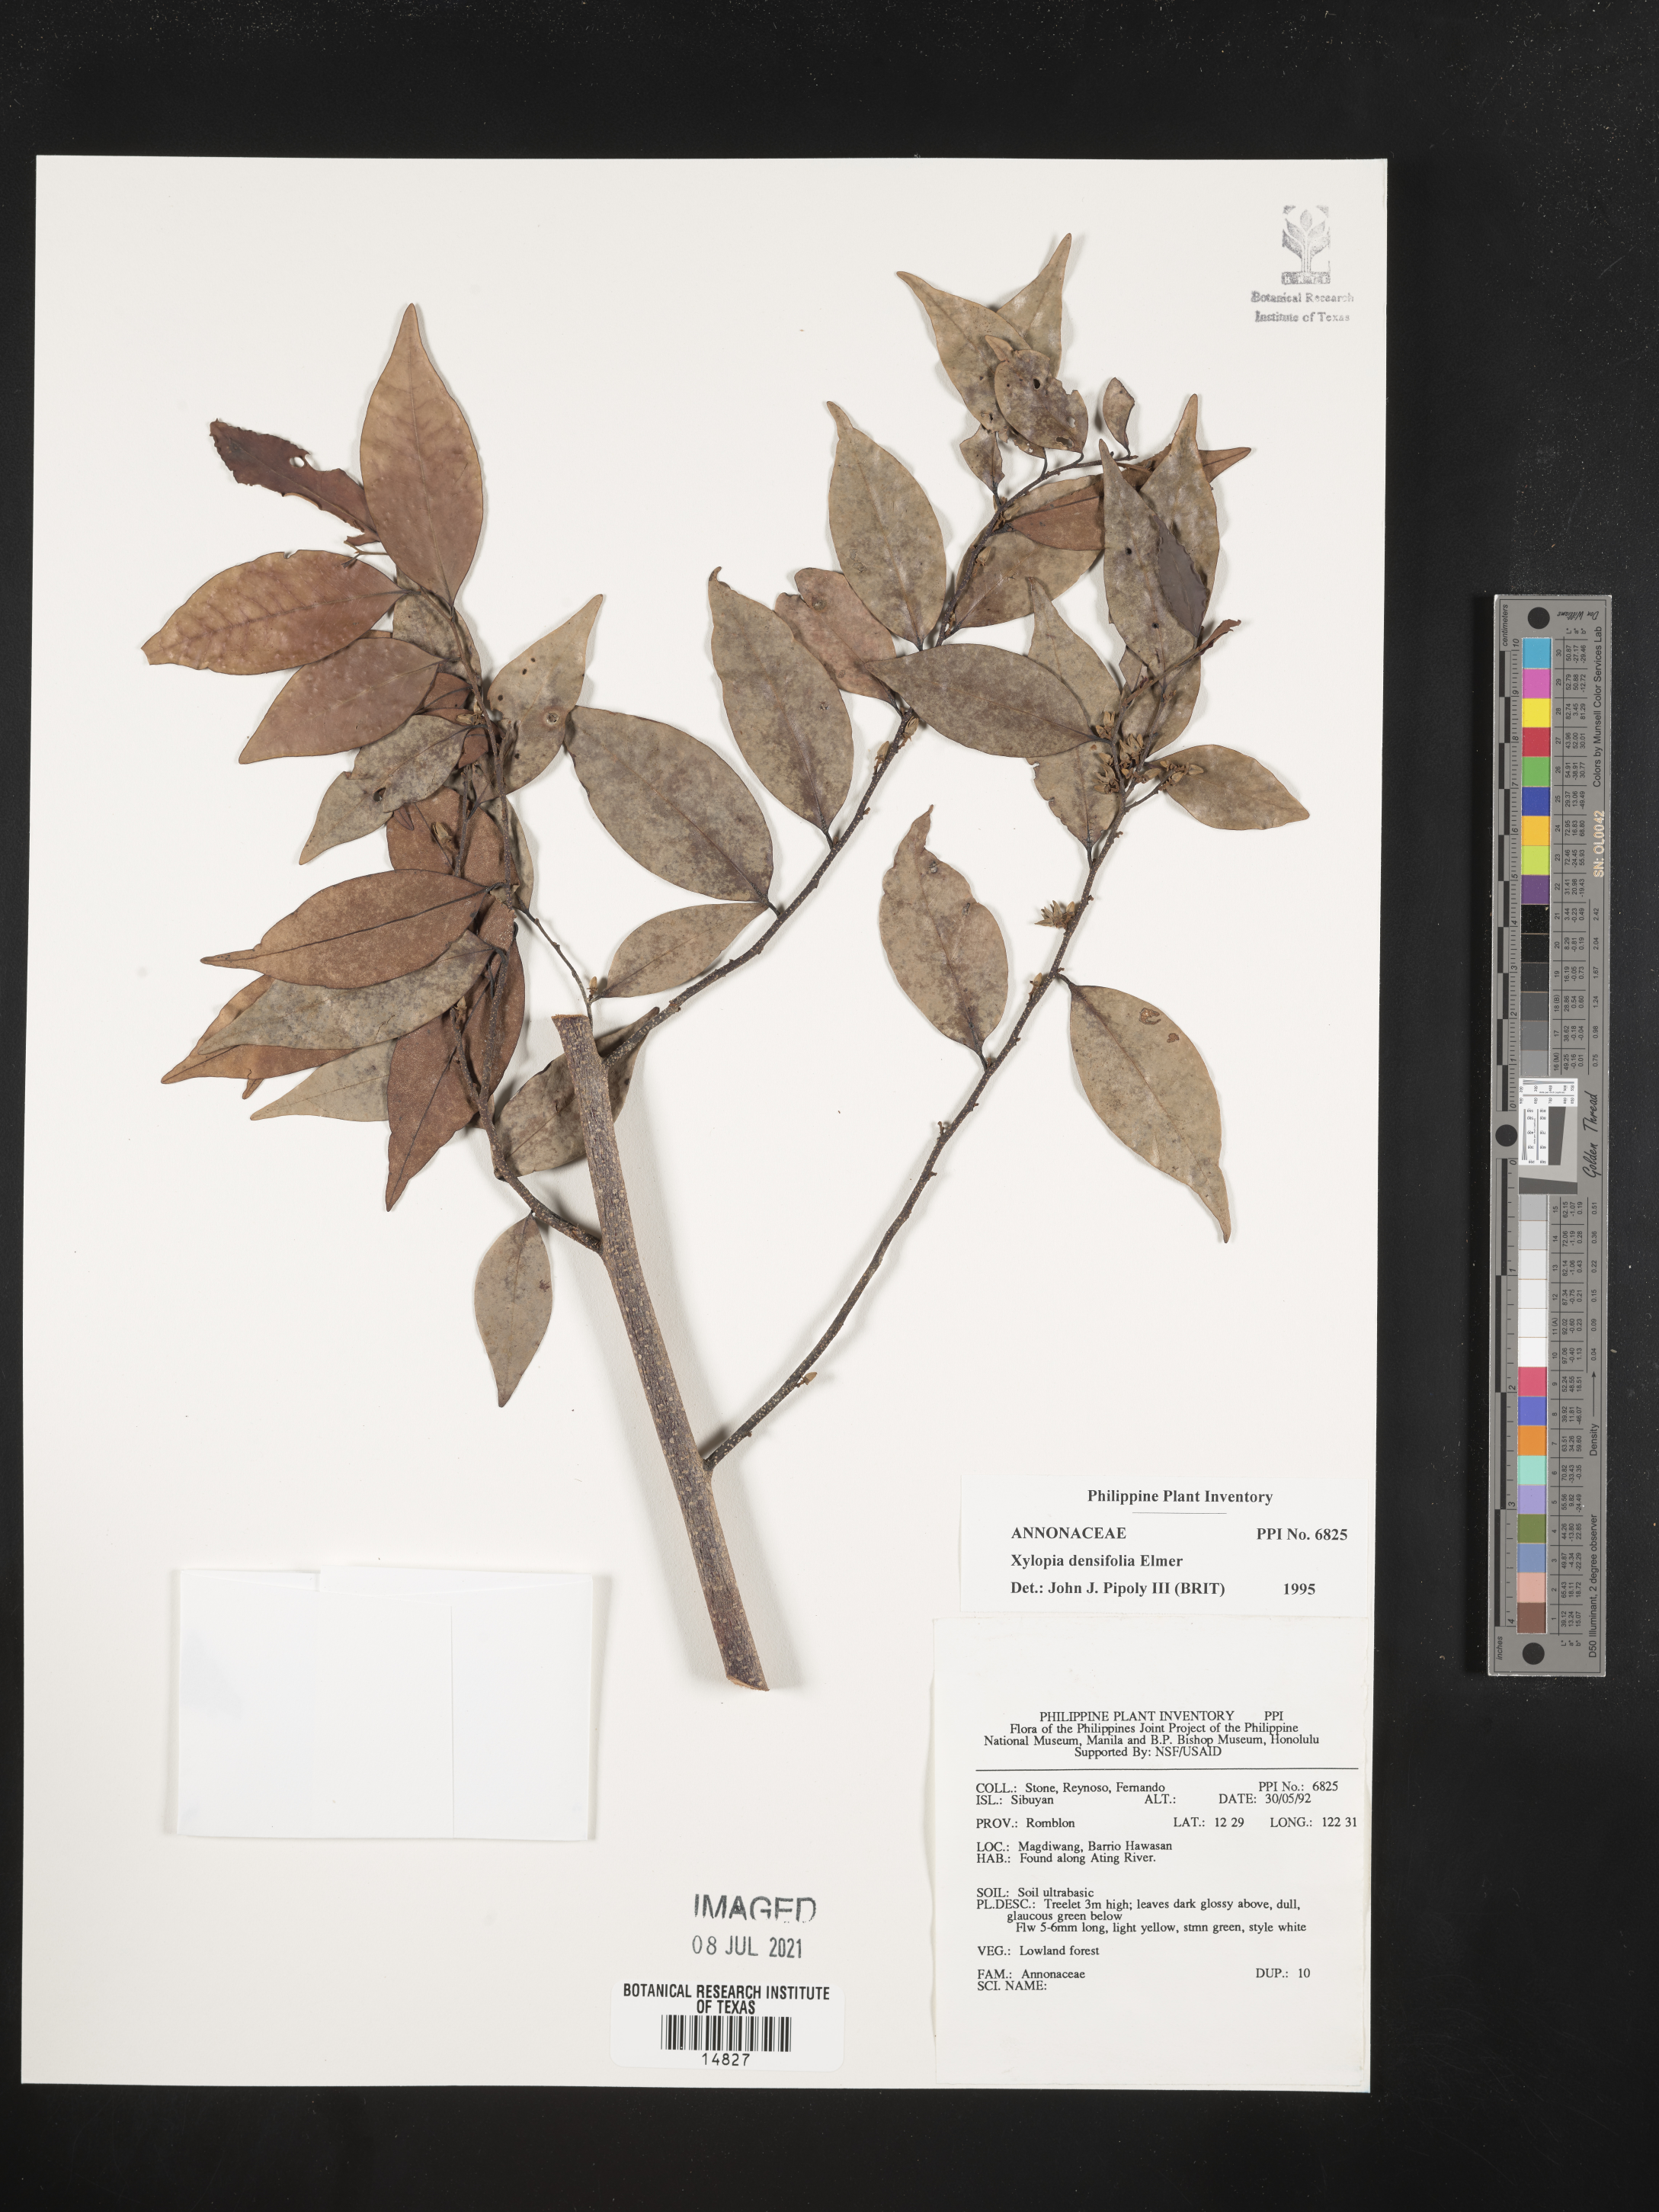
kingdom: Plantae
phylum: Tracheophyta
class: Magnoliopsida
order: Magnoliales
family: Annonaceae
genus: Xylopia
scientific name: Xylopia densiflora
